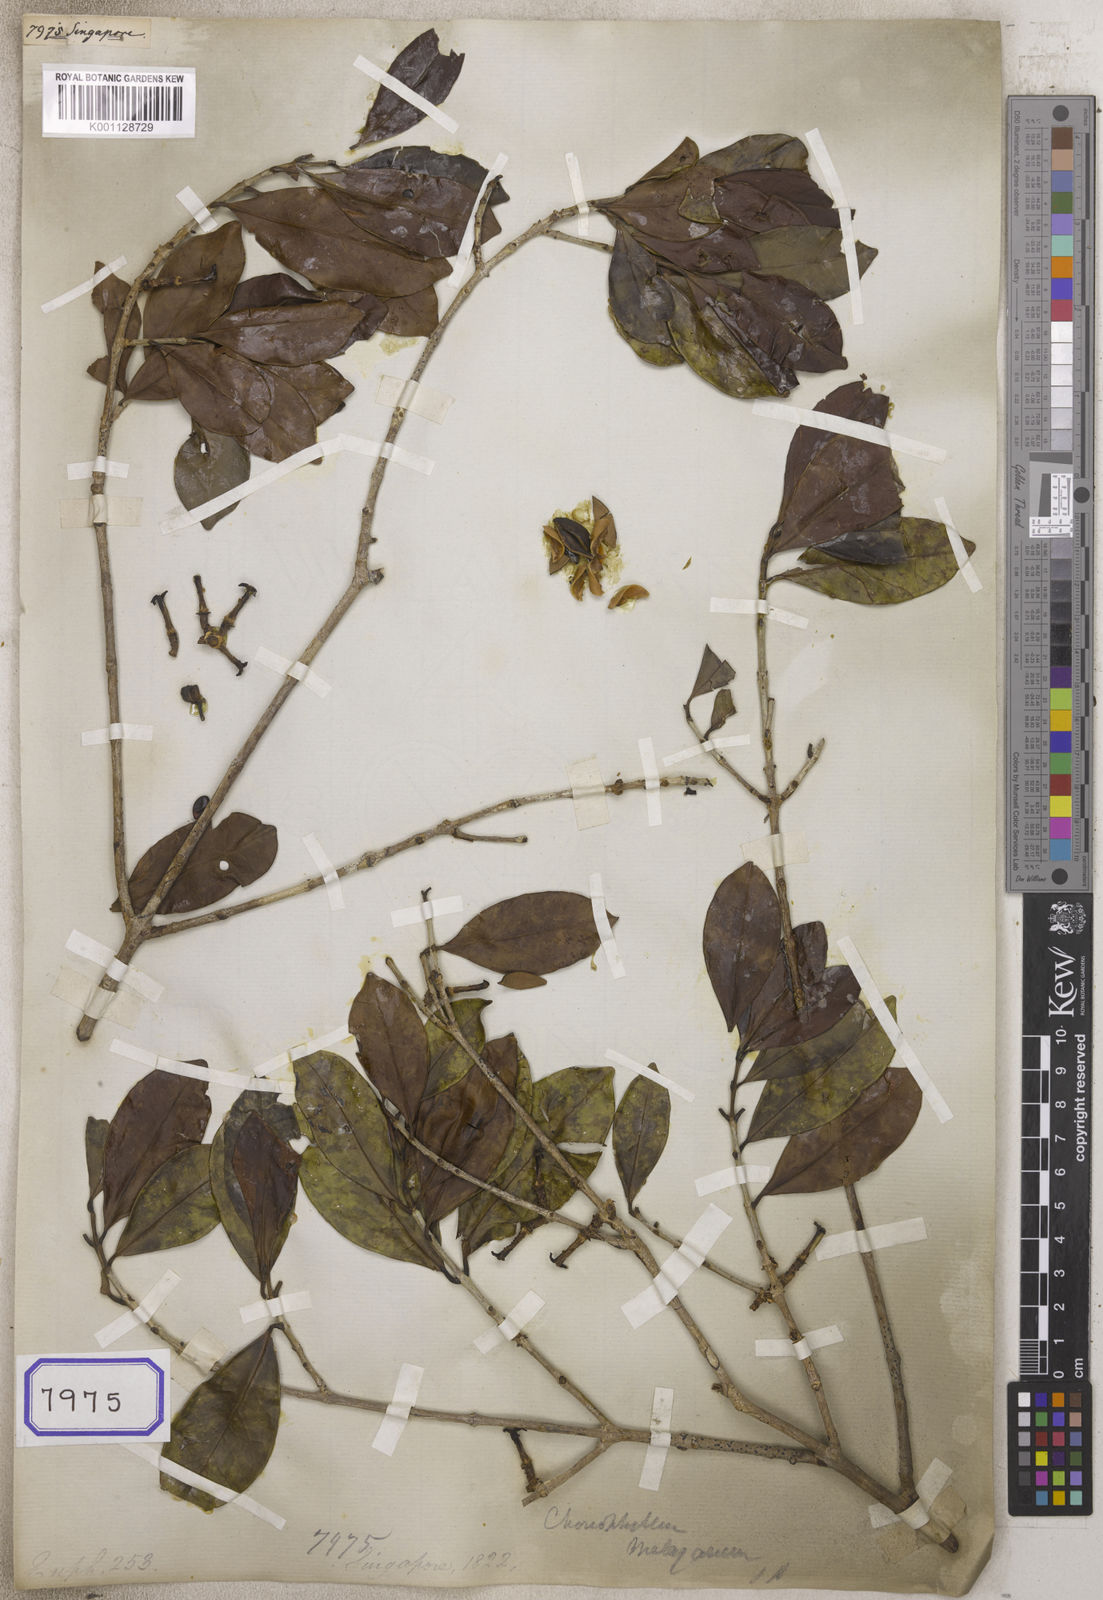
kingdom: Plantae
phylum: Tracheophyta
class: Magnoliopsida
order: Malpighiales
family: Euphorbiaceae
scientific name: Euphorbiaceae
